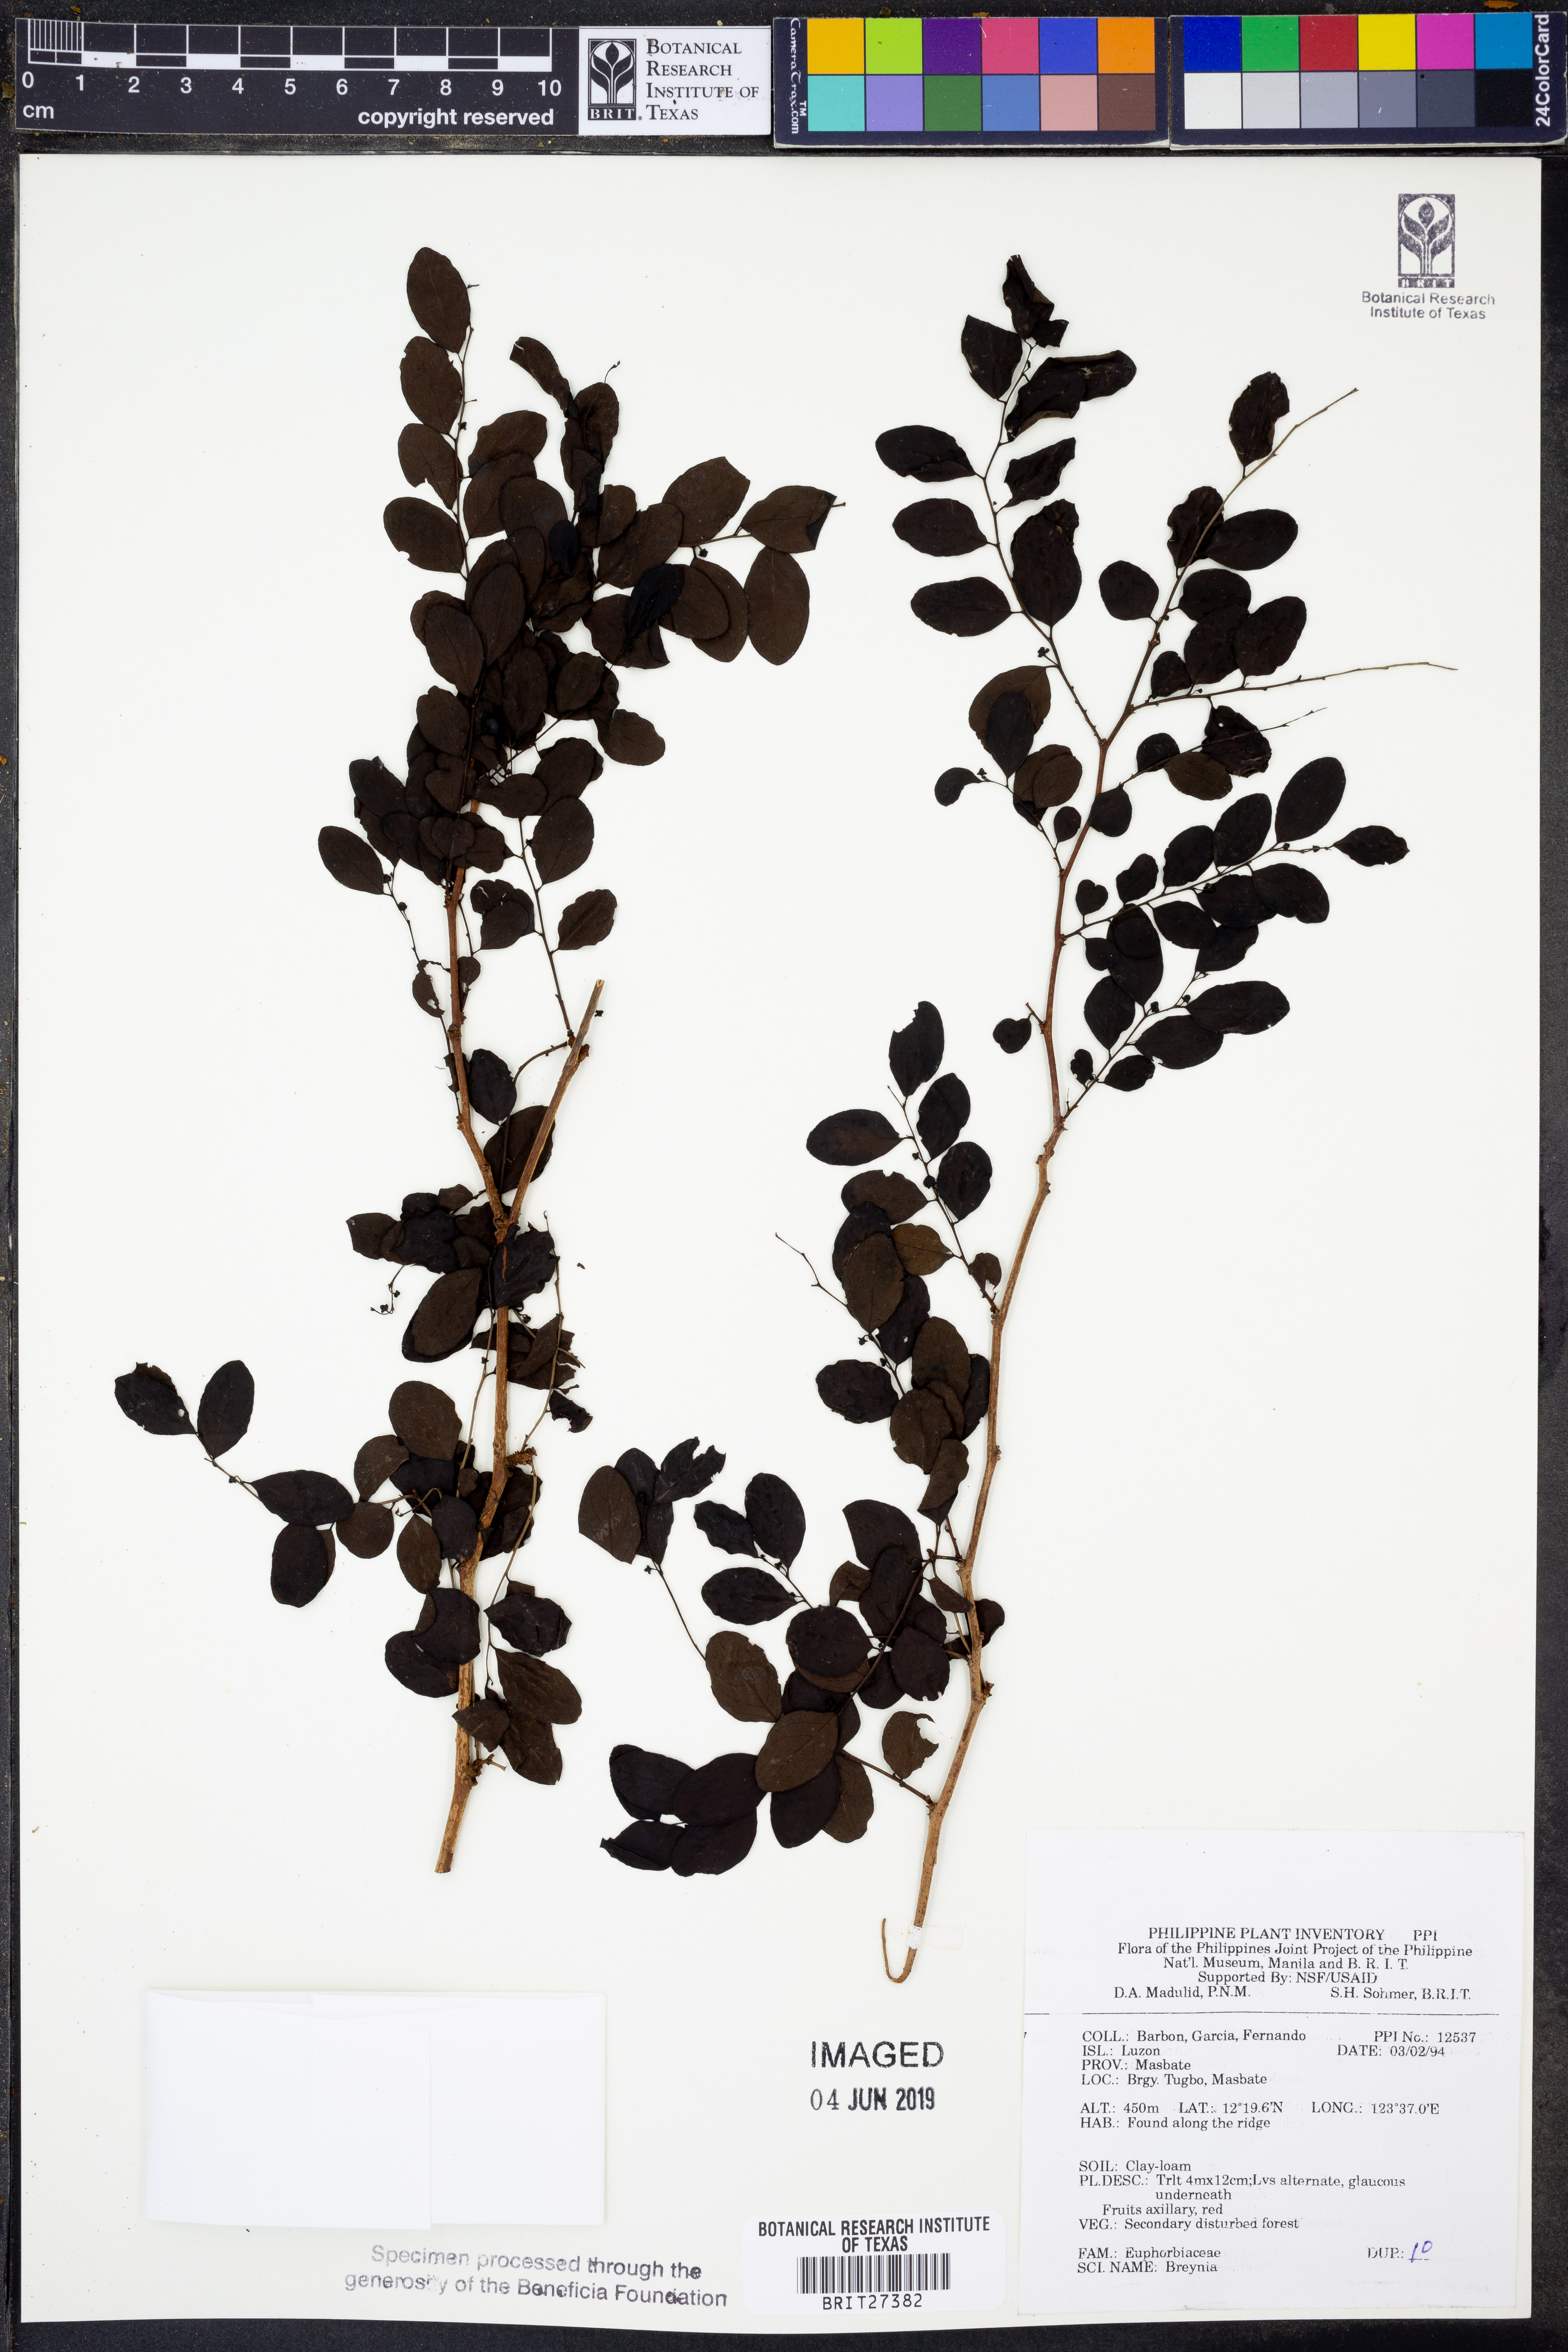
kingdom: Plantae
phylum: Tracheophyta
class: Magnoliopsida
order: Malpighiales
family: Phyllanthaceae
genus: Breynia
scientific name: Breynia
